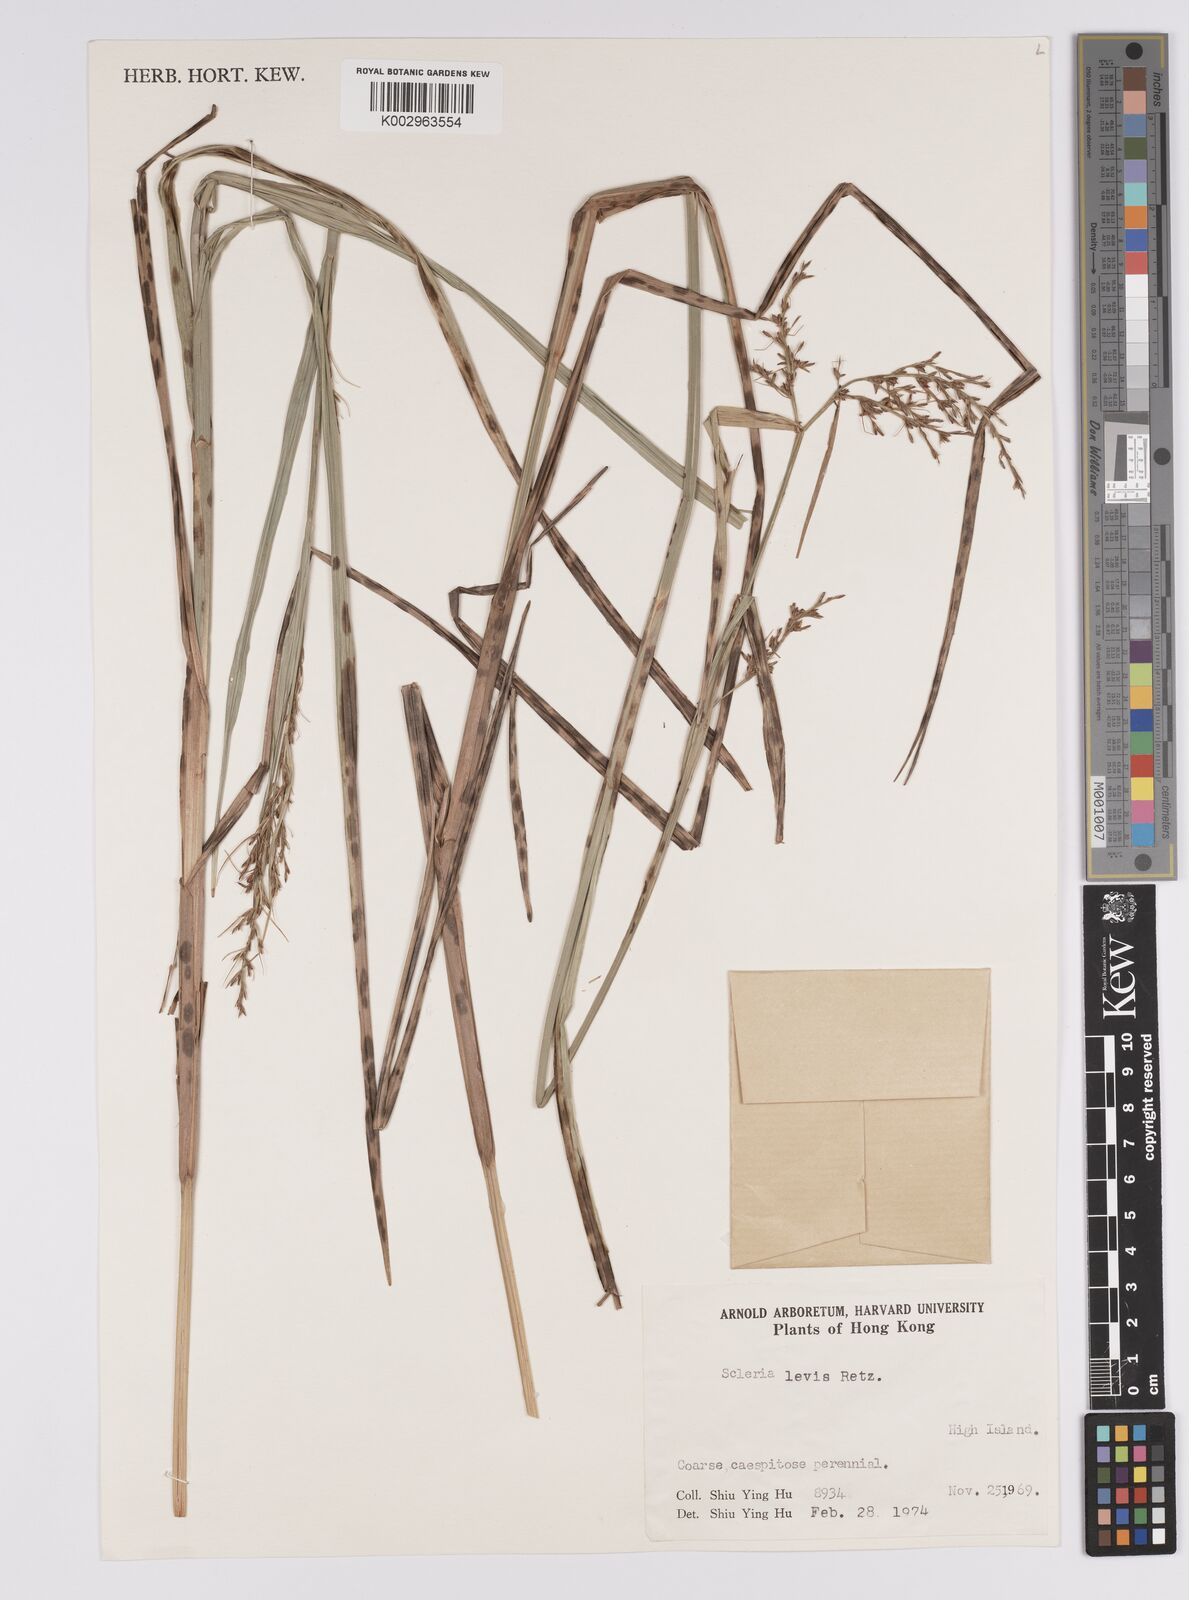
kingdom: Plantae
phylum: Tracheophyta
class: Liliopsida
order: Poales
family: Cyperaceae
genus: Scleria
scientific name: Scleria levis
